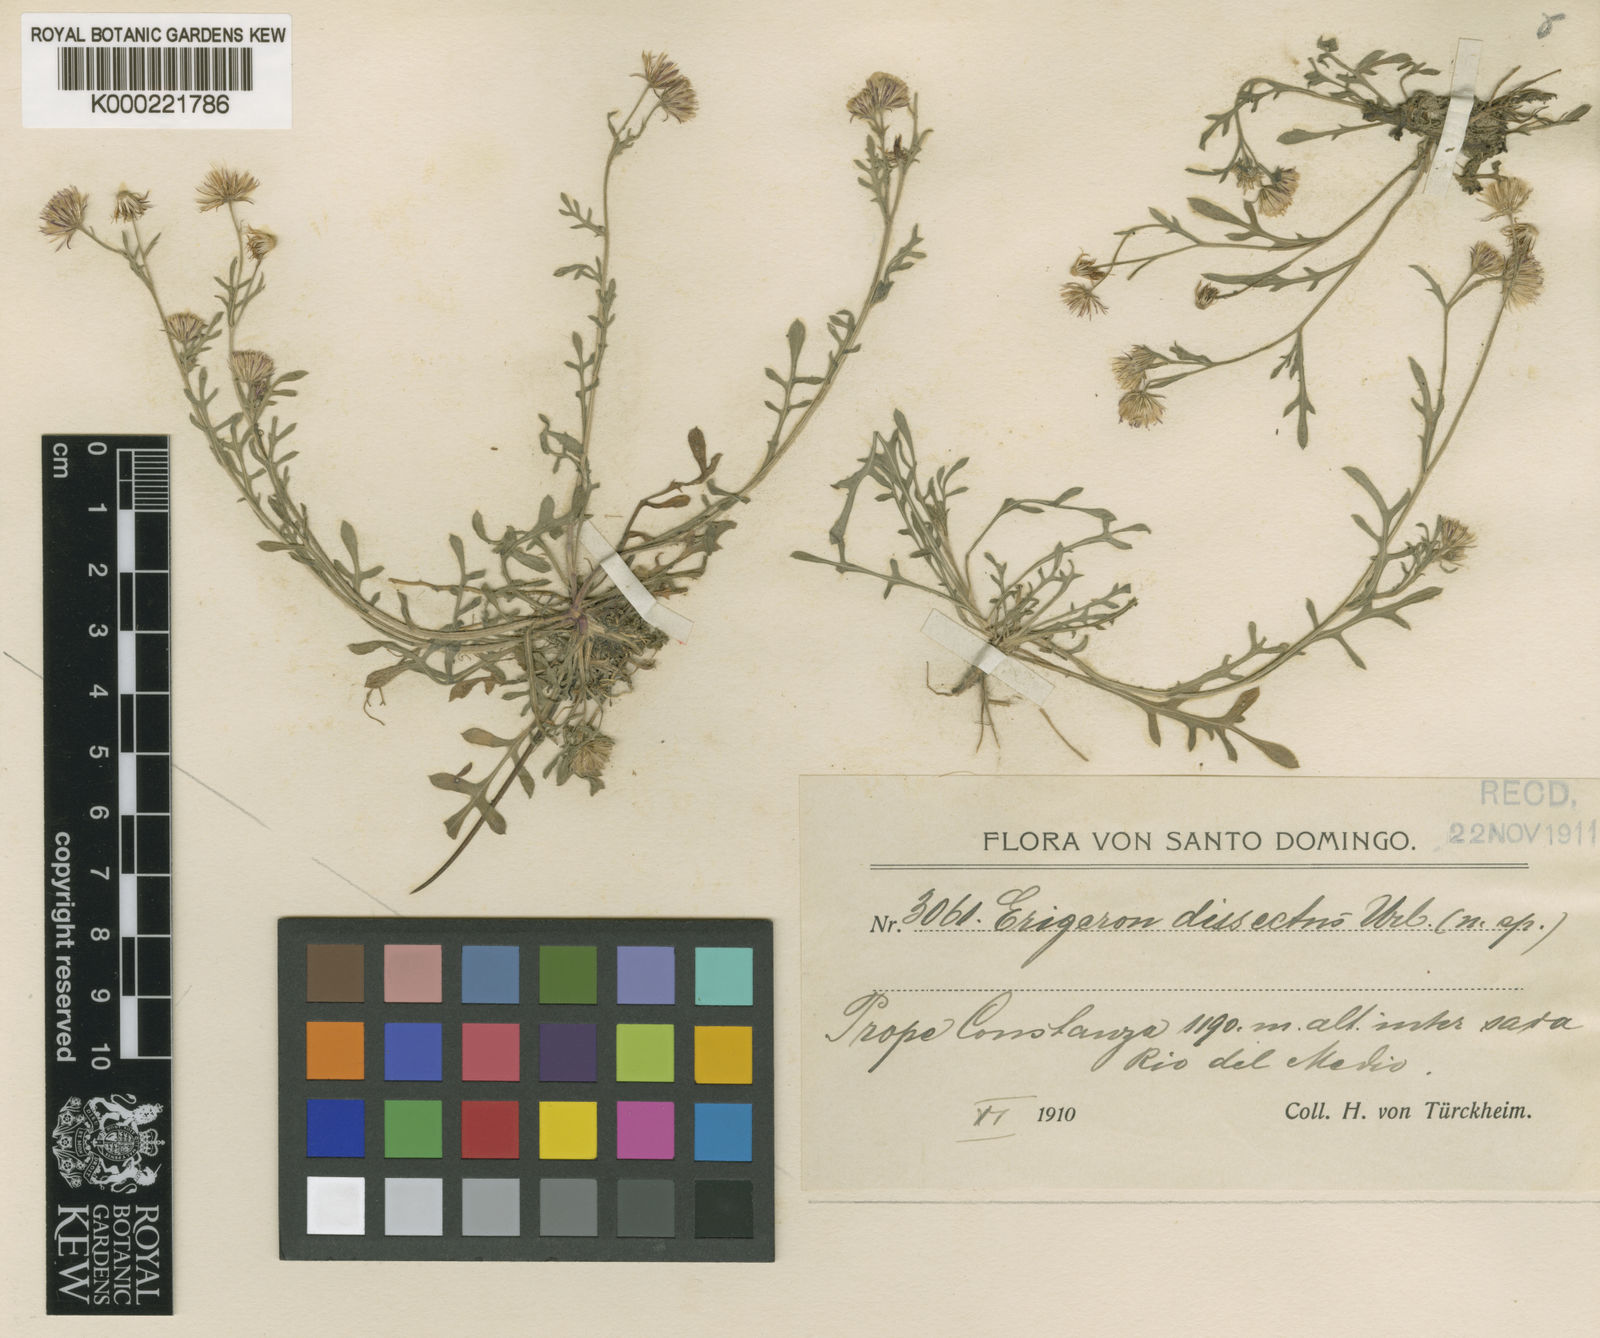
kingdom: Plantae
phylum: Tracheophyta
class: Magnoliopsida
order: Asterales
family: Asteraceae
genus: Erigeron
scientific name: Erigeron dissectus
